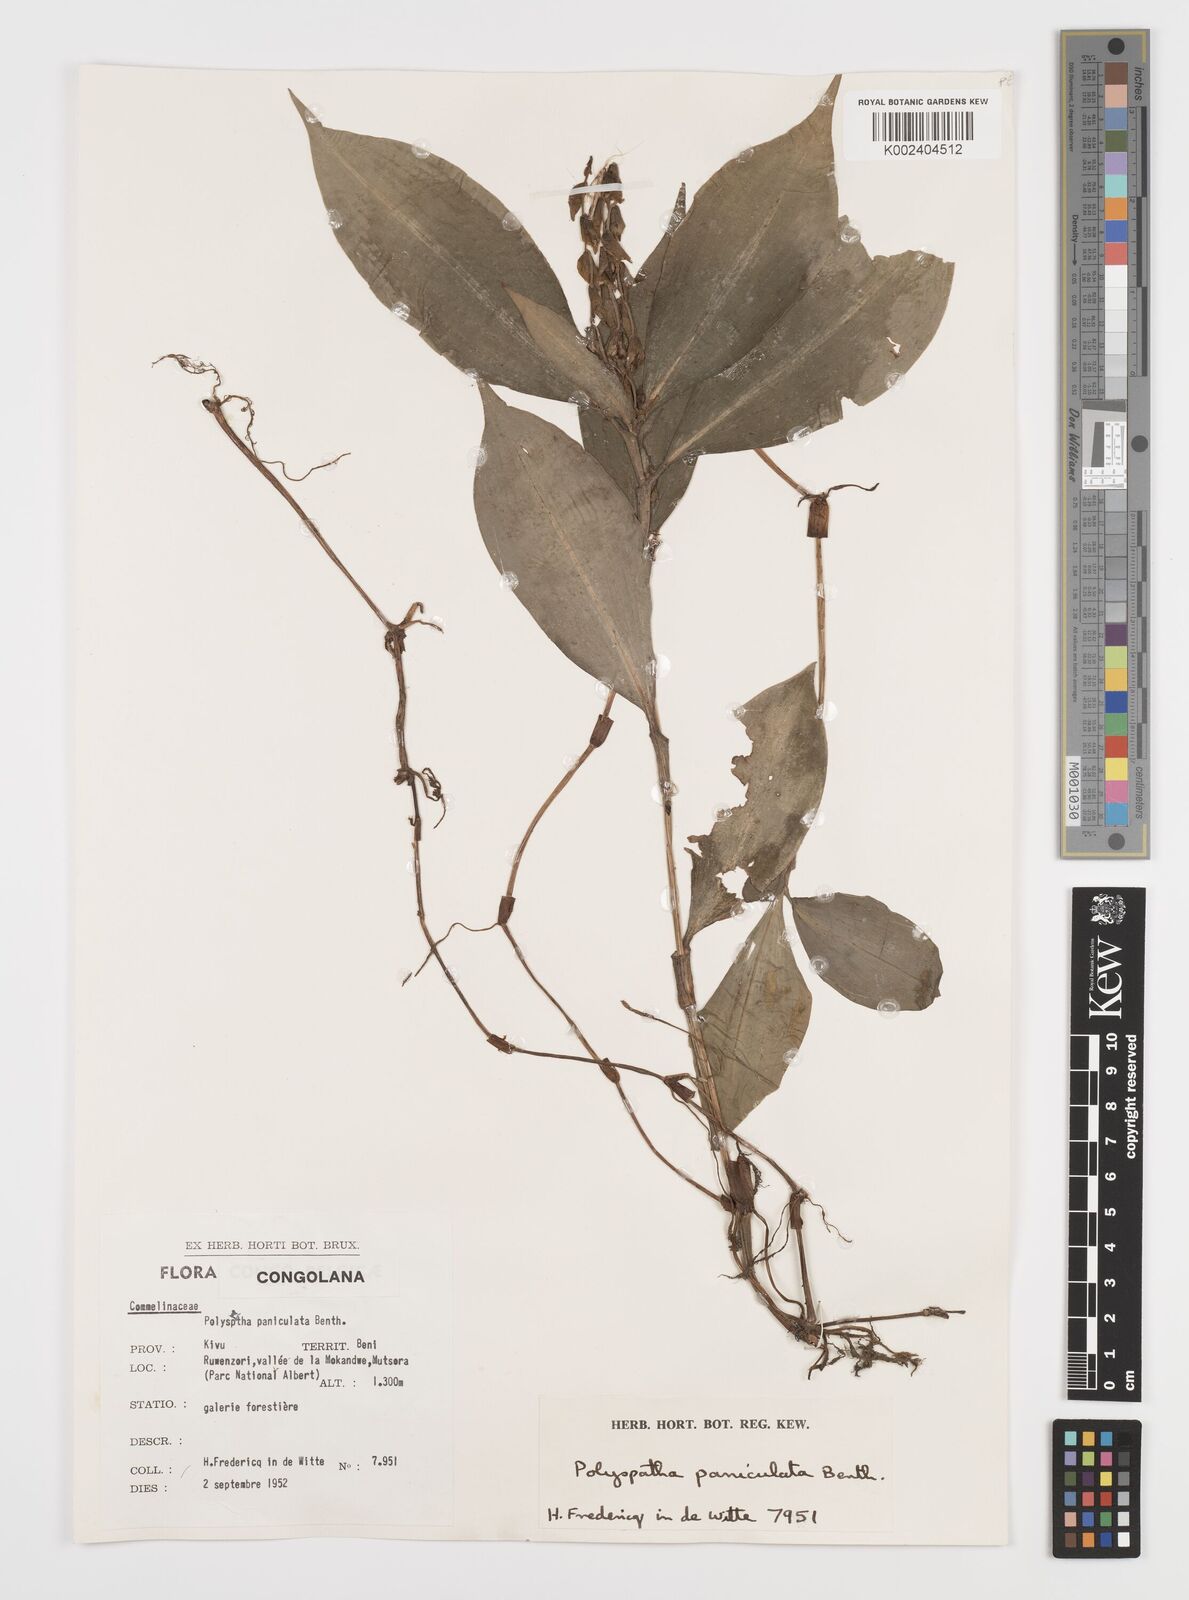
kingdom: Plantae
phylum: Tracheophyta
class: Liliopsida
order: Commelinales
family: Commelinaceae
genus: Polyspatha
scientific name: Polyspatha paniculata
